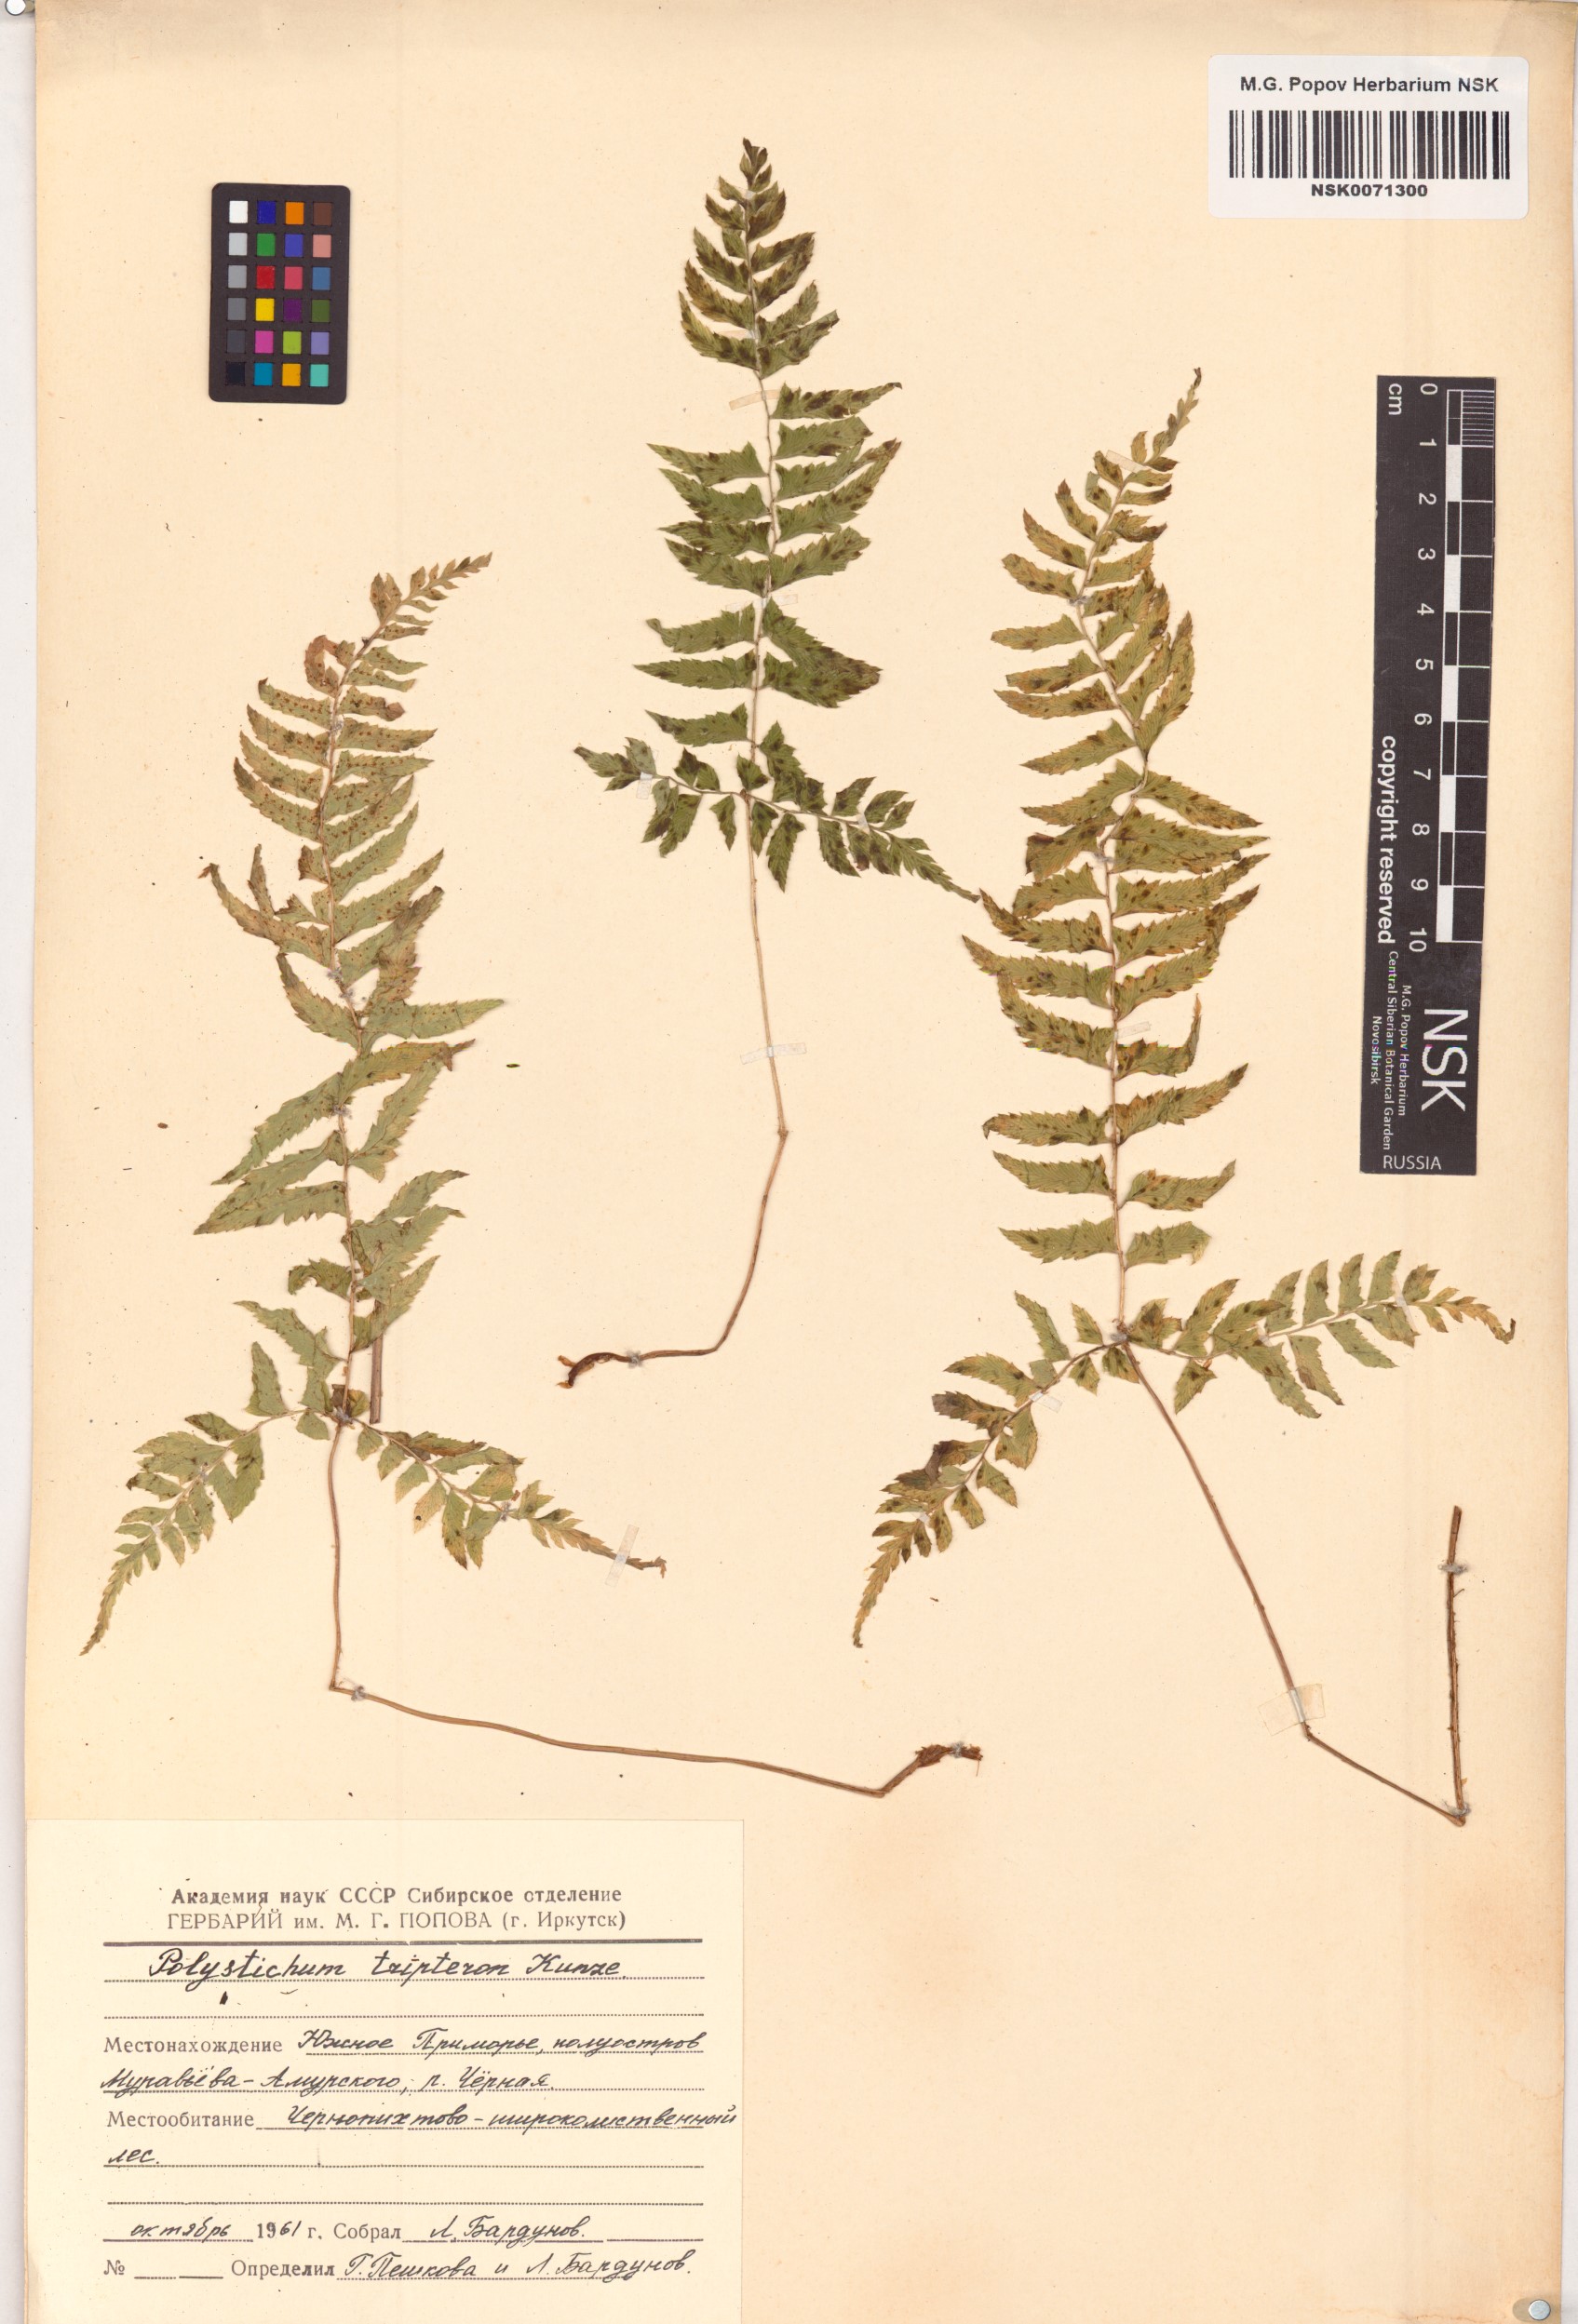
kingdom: Plantae
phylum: Tracheophyta
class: Polypodiopsida
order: Polypodiales
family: Dryopteridaceae
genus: Polystichum
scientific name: Polystichum tripteron
